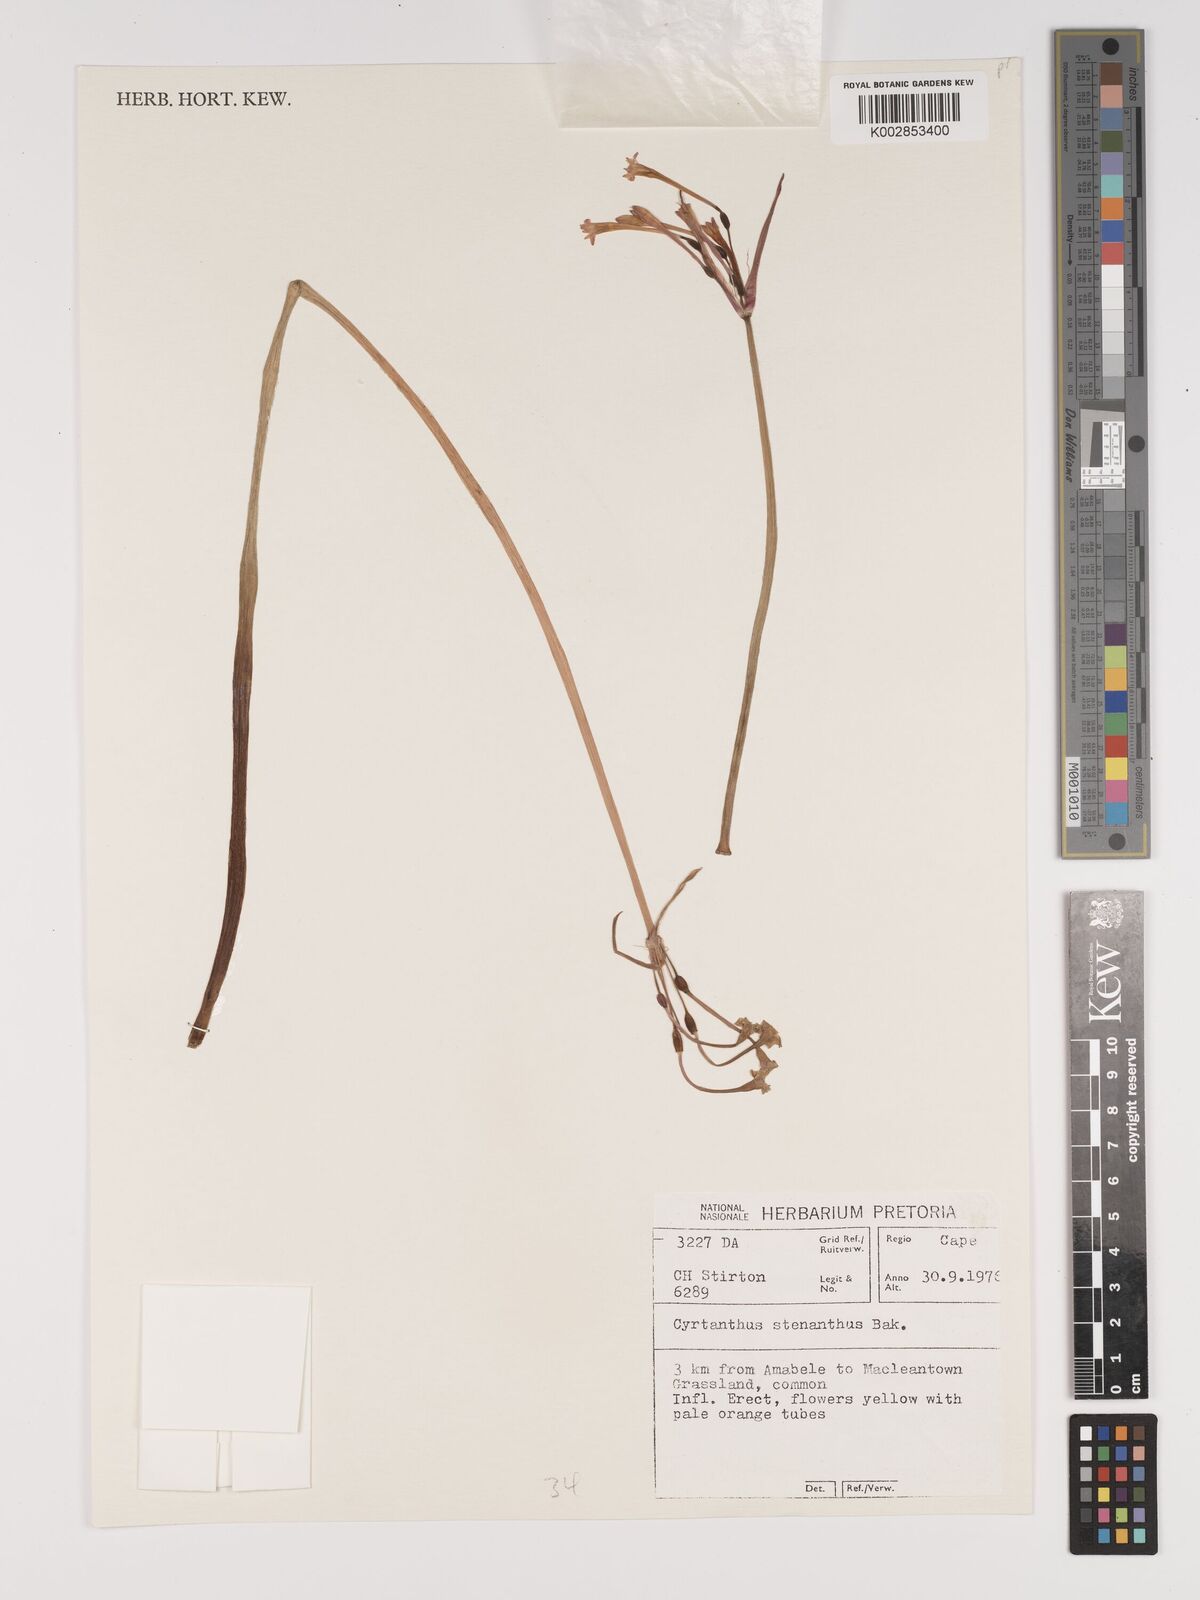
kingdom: Plantae
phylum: Tracheophyta
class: Liliopsida
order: Asparagales
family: Amaryllidaceae
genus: Cyrtanthus
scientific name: Cyrtanthus stenanthus
